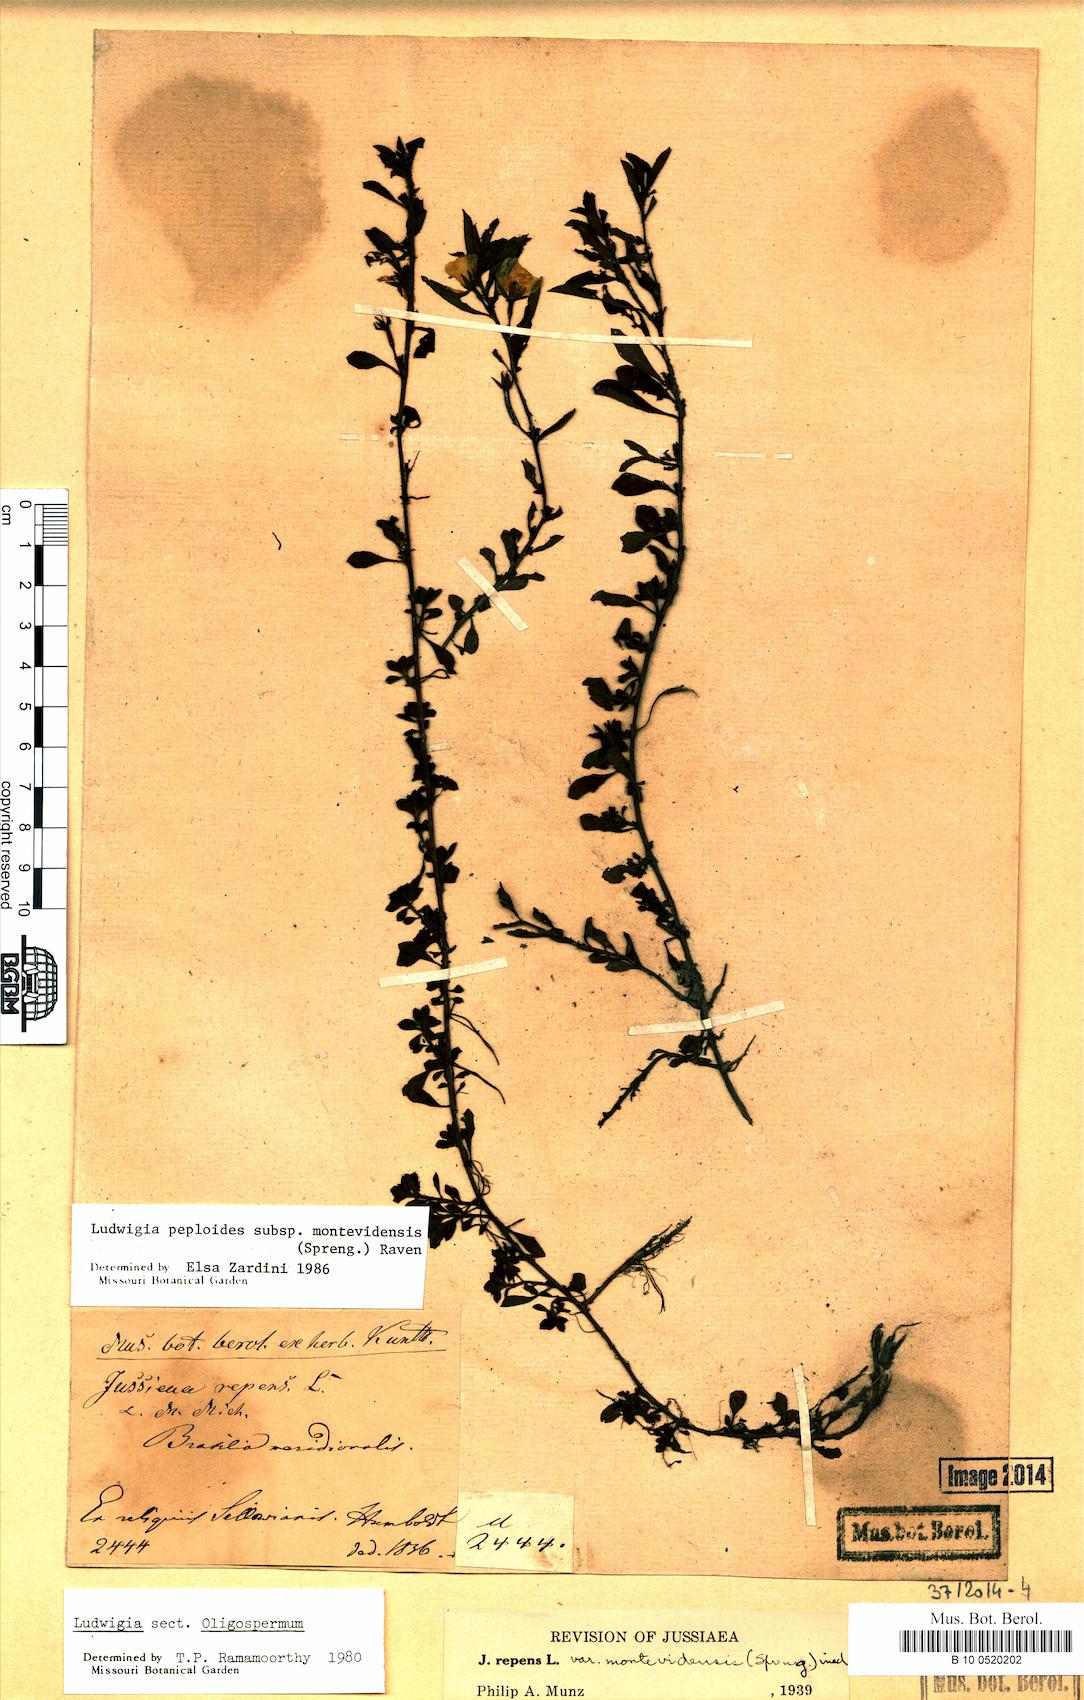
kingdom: Plantae
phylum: Tracheophyta
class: Magnoliopsida
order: Myrtales
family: Onagraceae
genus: Ludwigia
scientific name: Ludwigia peploides
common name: Floating primrose-willow
